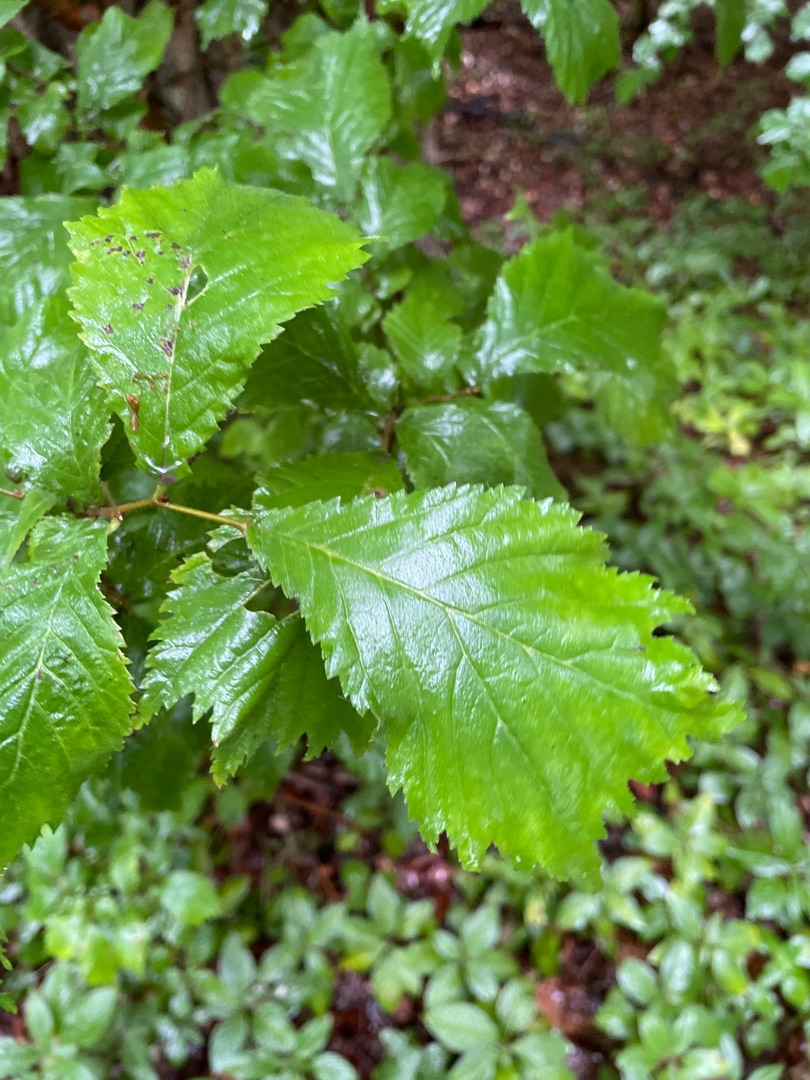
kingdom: Plantae
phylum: Tracheophyta
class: Magnoliopsida
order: Rosales
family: Ulmaceae
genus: Ulmus
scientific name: Ulmus glabra
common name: Skov-elm/storbladet elm
